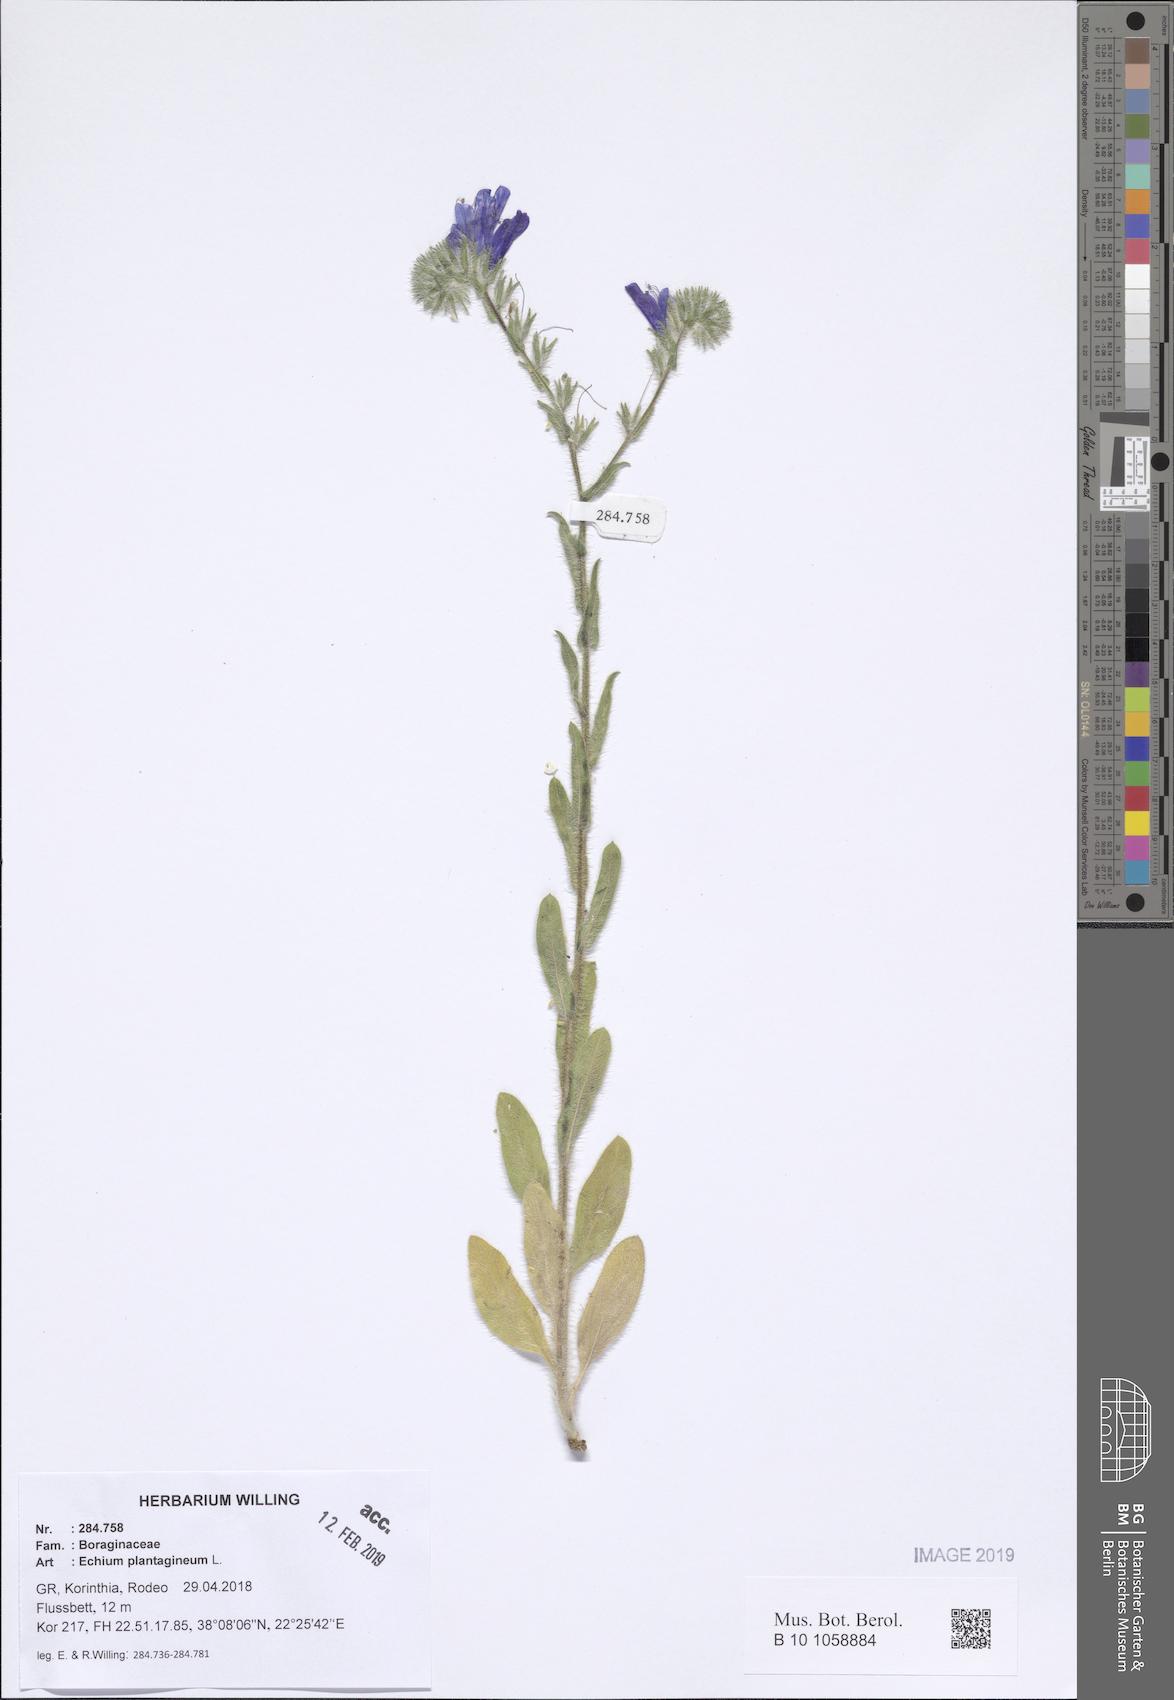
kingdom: Plantae
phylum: Tracheophyta
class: Magnoliopsida
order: Boraginales
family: Boraginaceae
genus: Echium
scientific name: Echium plantagineum
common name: Purple viper's-bugloss
